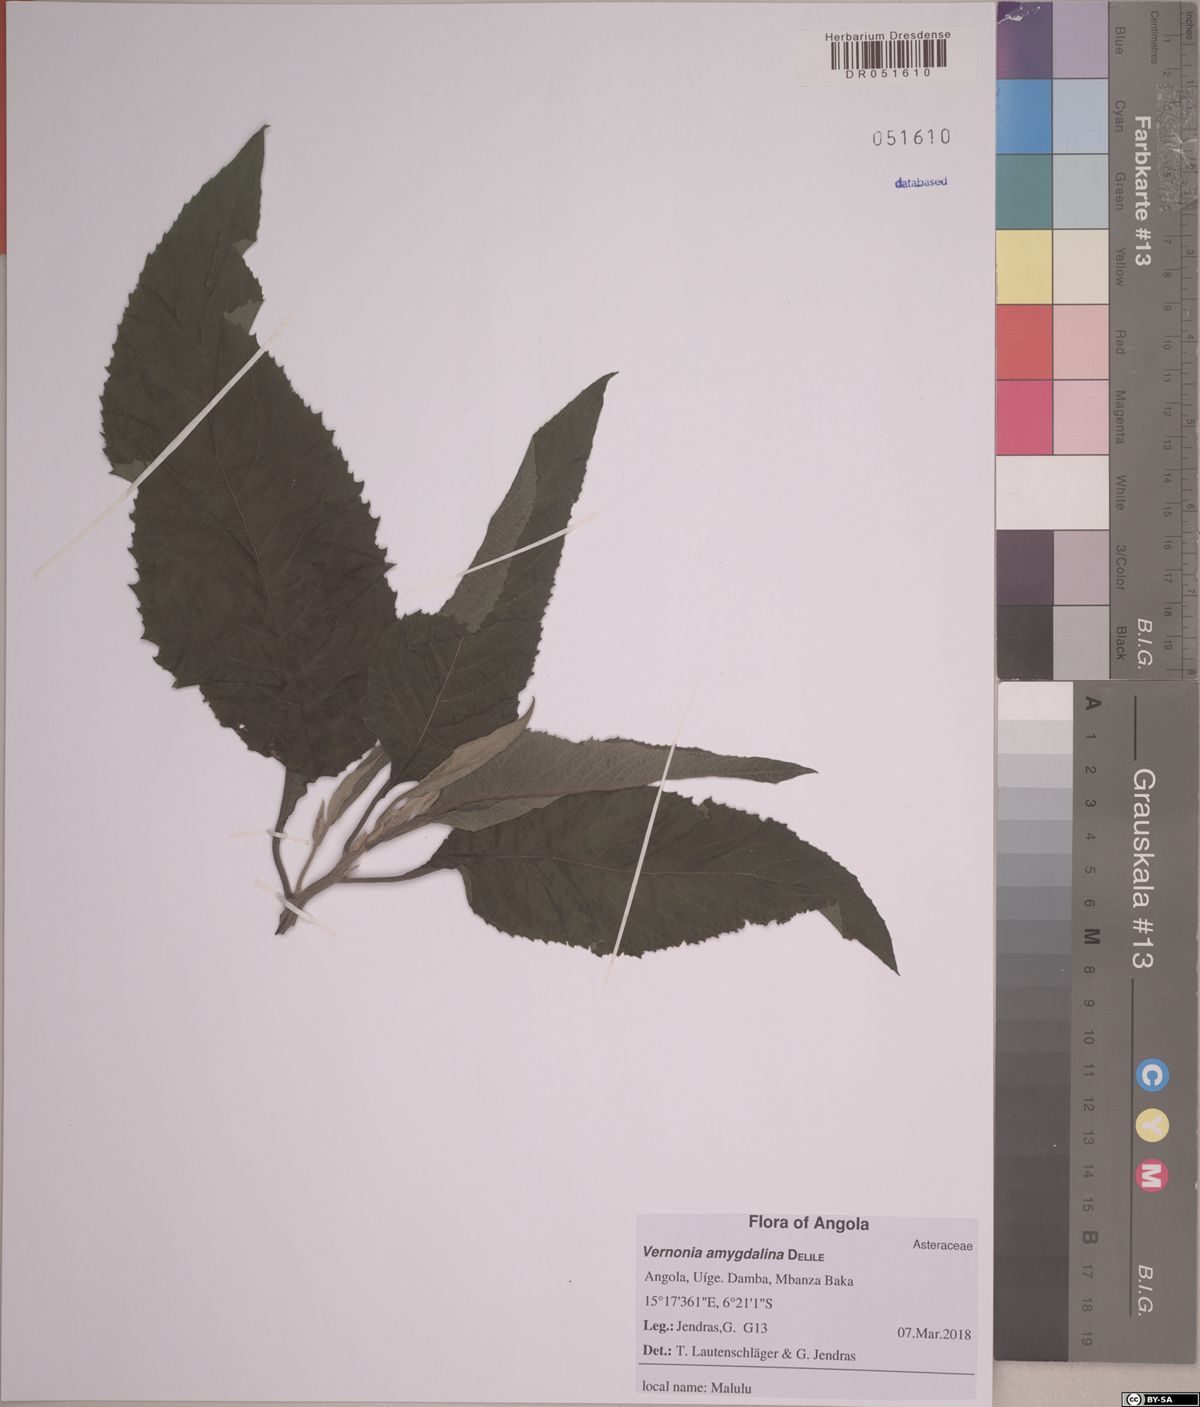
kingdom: Plantae
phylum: Tracheophyta
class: Magnoliopsida
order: Asterales
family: Asteraceae
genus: Gymnanthemum
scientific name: Gymnanthemum amygdalinum
